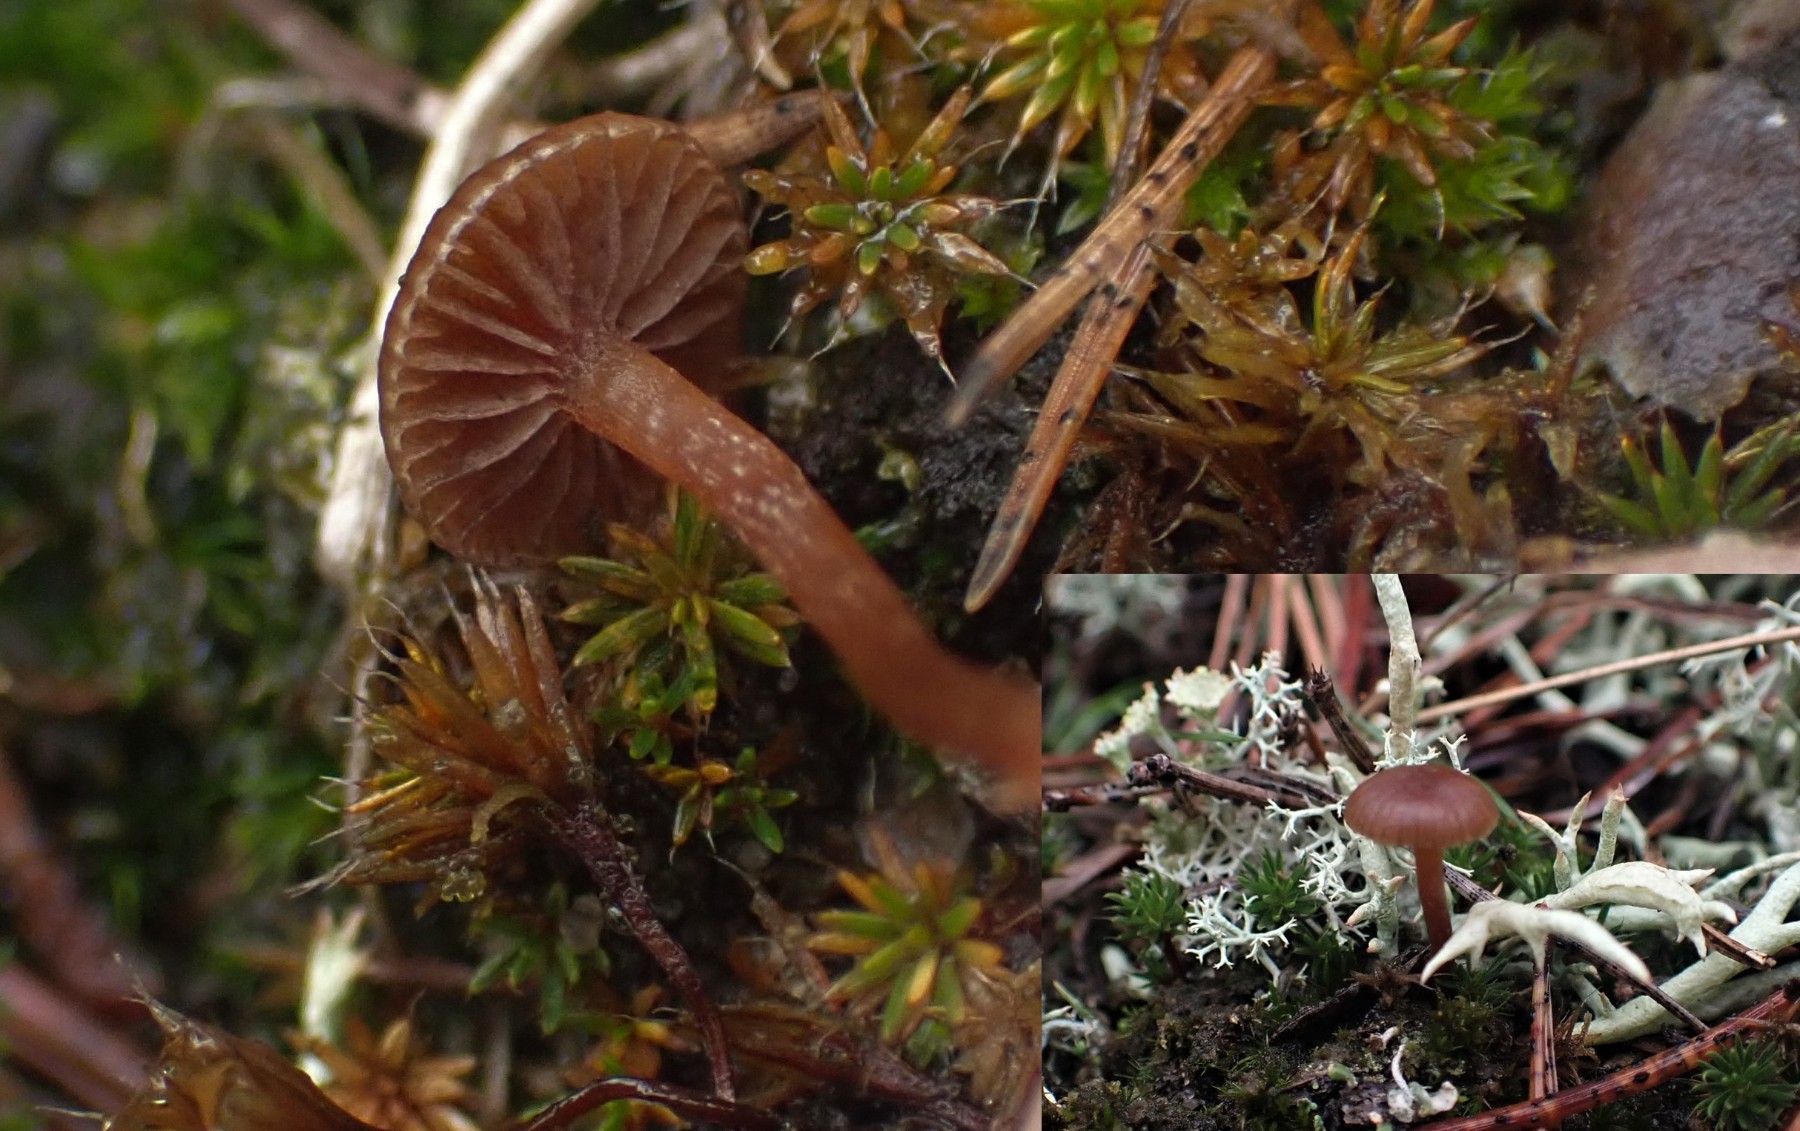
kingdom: Fungi
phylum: Basidiomycota
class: Agaricomycetes
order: Agaricales
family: Strophariaceae
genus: Deconica
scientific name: Deconica montana
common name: rødbrun stråhat
